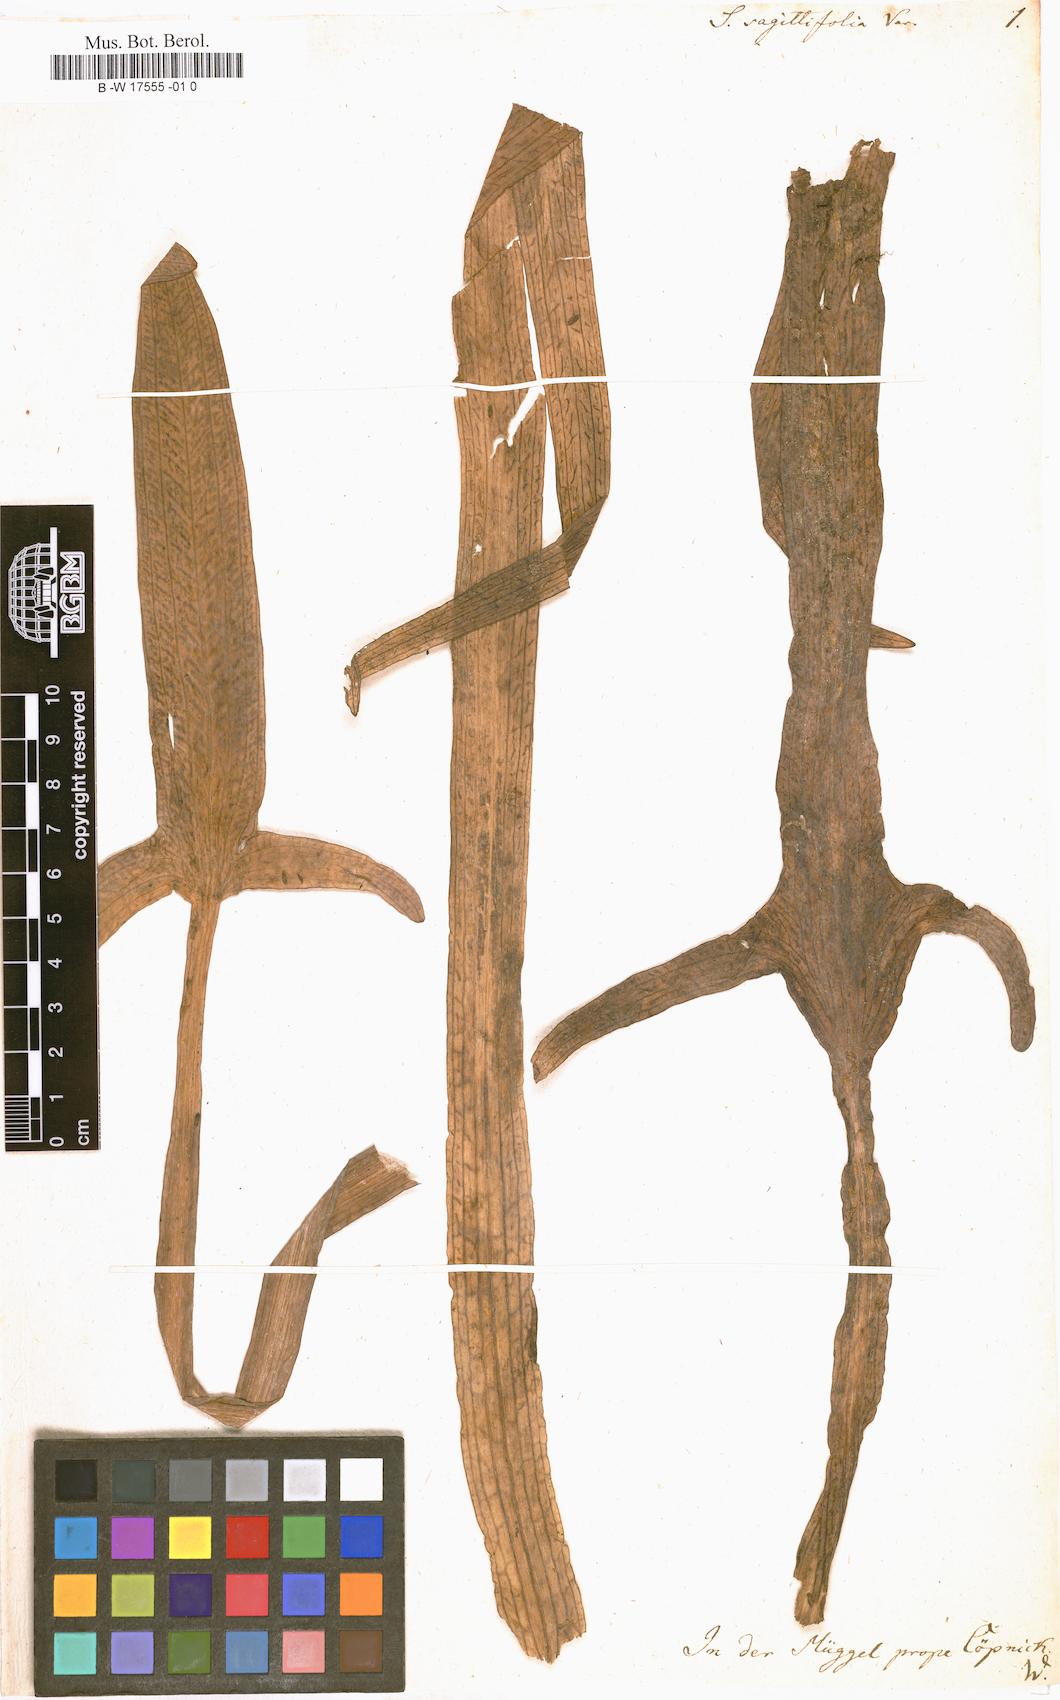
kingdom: Plantae
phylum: Tracheophyta
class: Liliopsida
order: Alismatales
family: Alismataceae
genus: Sagittaria
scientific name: Sagittaria sagittifolia
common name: Arrowhead
